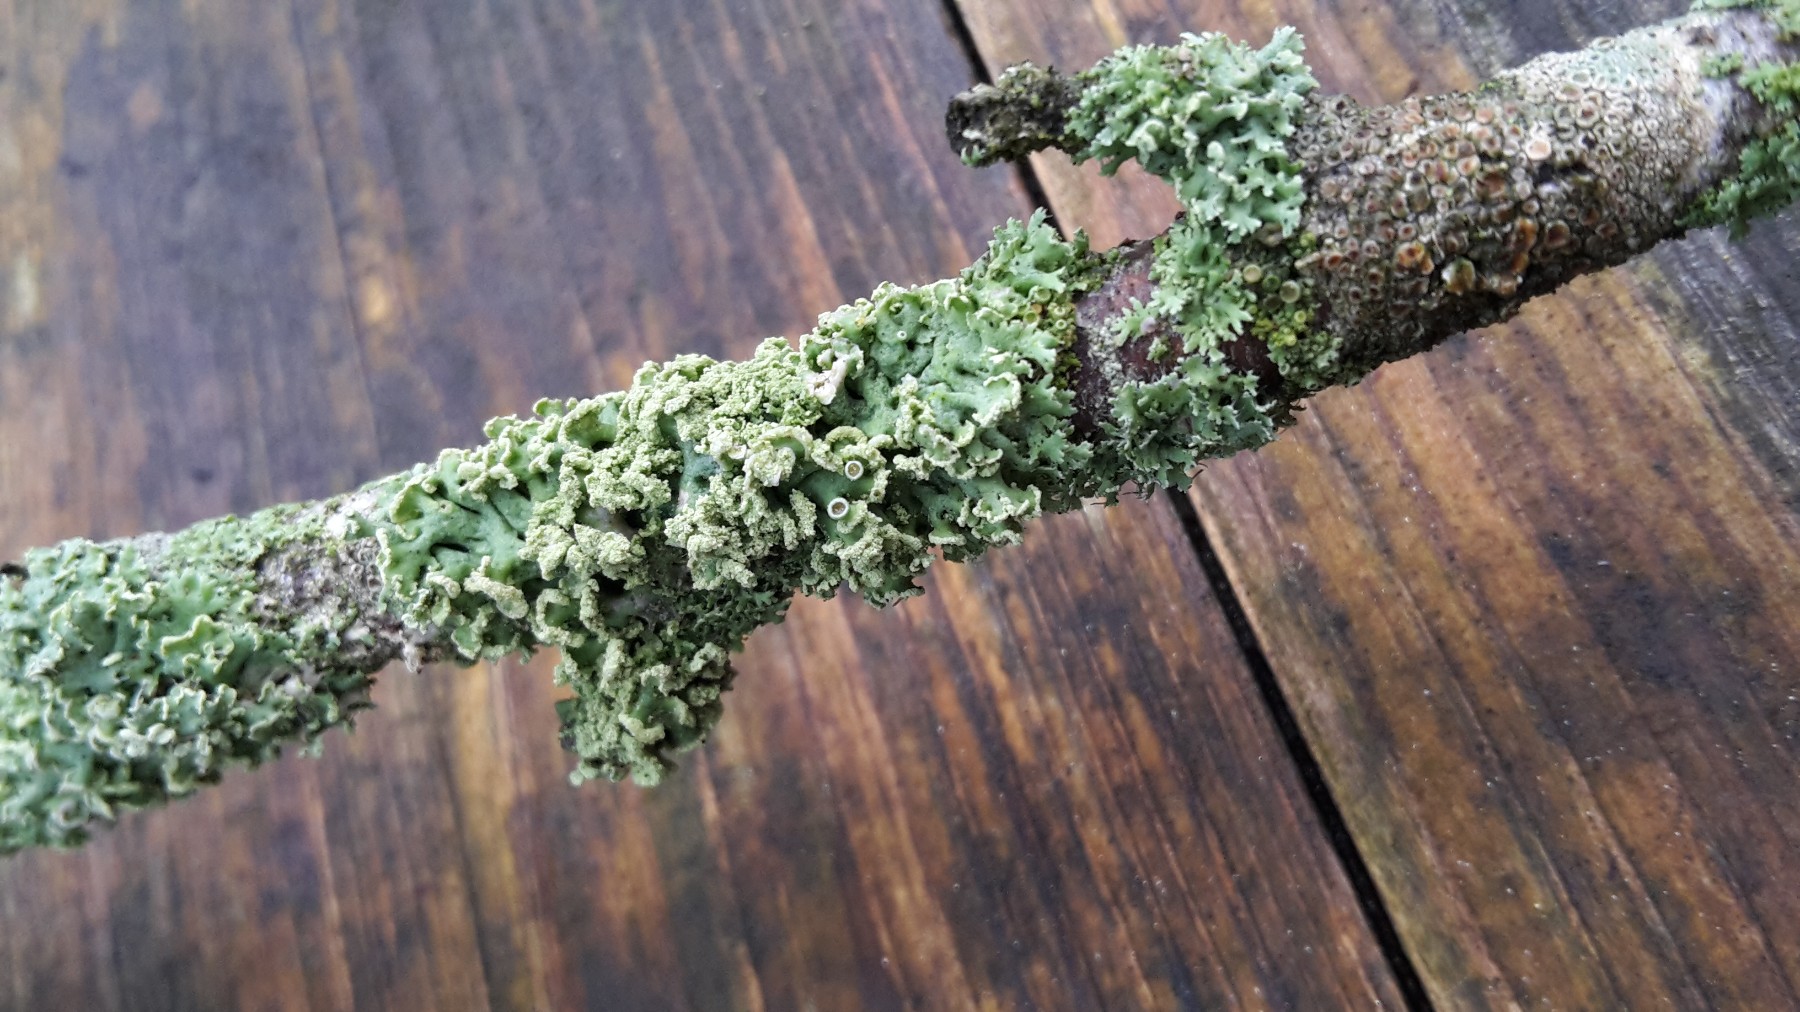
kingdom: Fungi
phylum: Ascomycota
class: Lecanoromycetes
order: Caliciales
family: Physciaceae
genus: Physcia
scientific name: Physcia tenella
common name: spæd rosetlav
